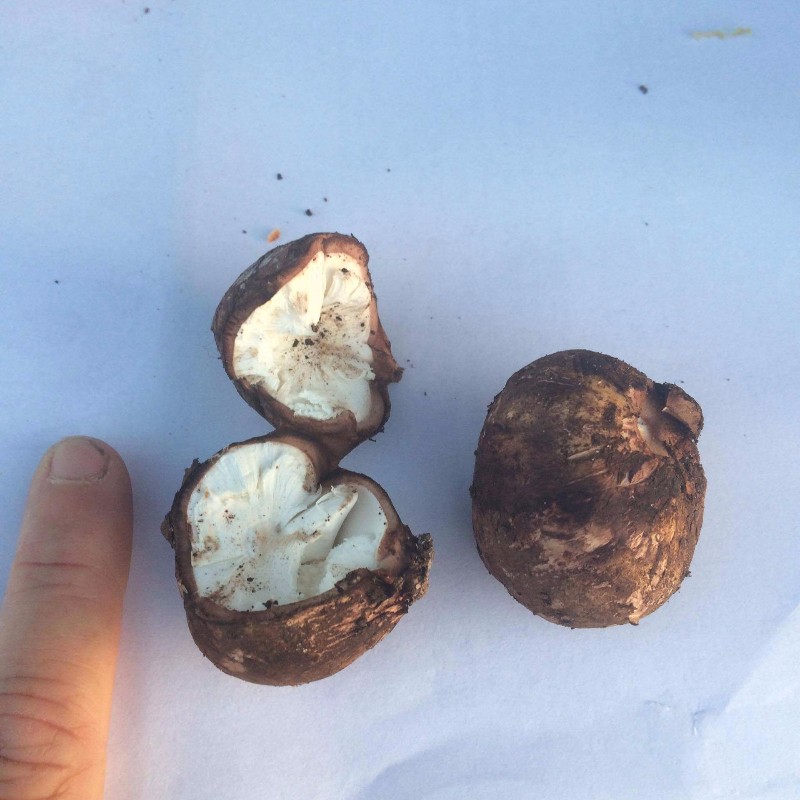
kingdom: Fungi
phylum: Basidiomycota
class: Agaricomycetes
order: Geastrales
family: Geastraceae
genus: Geastrum
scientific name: Geastrum
